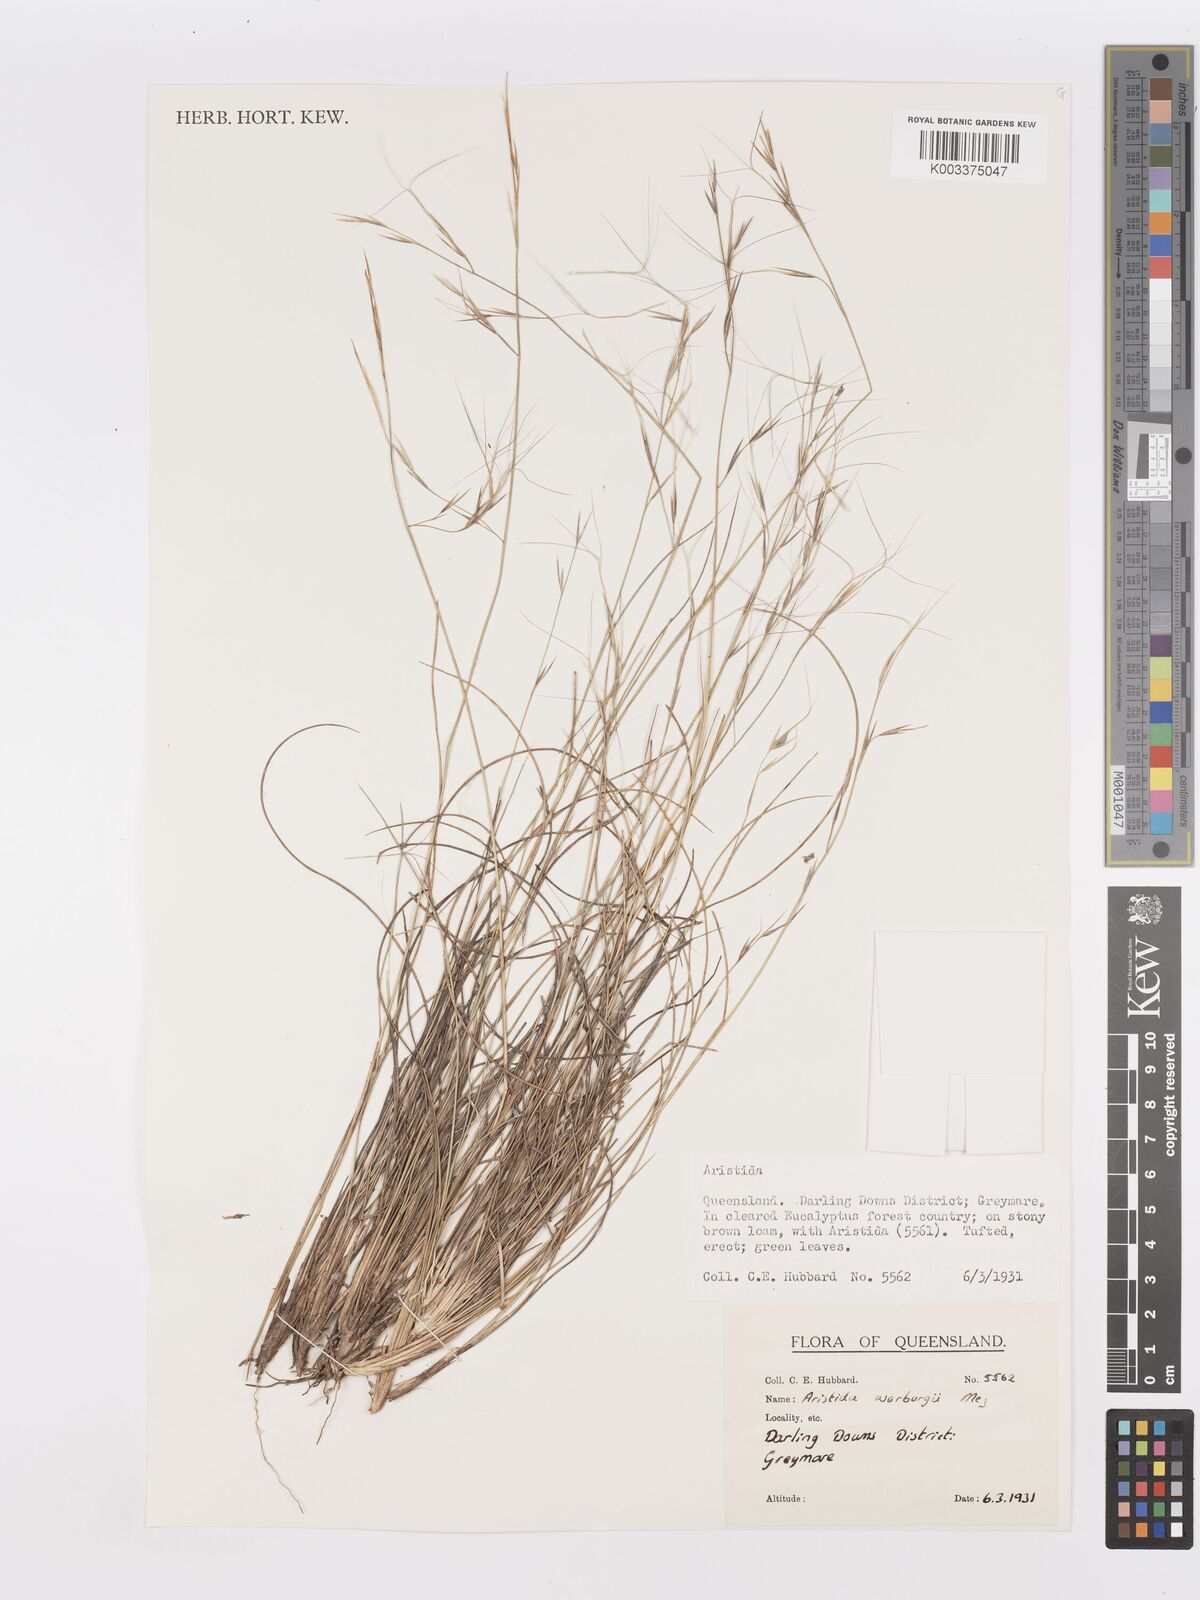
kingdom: Plantae
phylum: Tracheophyta
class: Liliopsida
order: Poales
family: Poaceae
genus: Aristida
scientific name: Aristida warburgii
